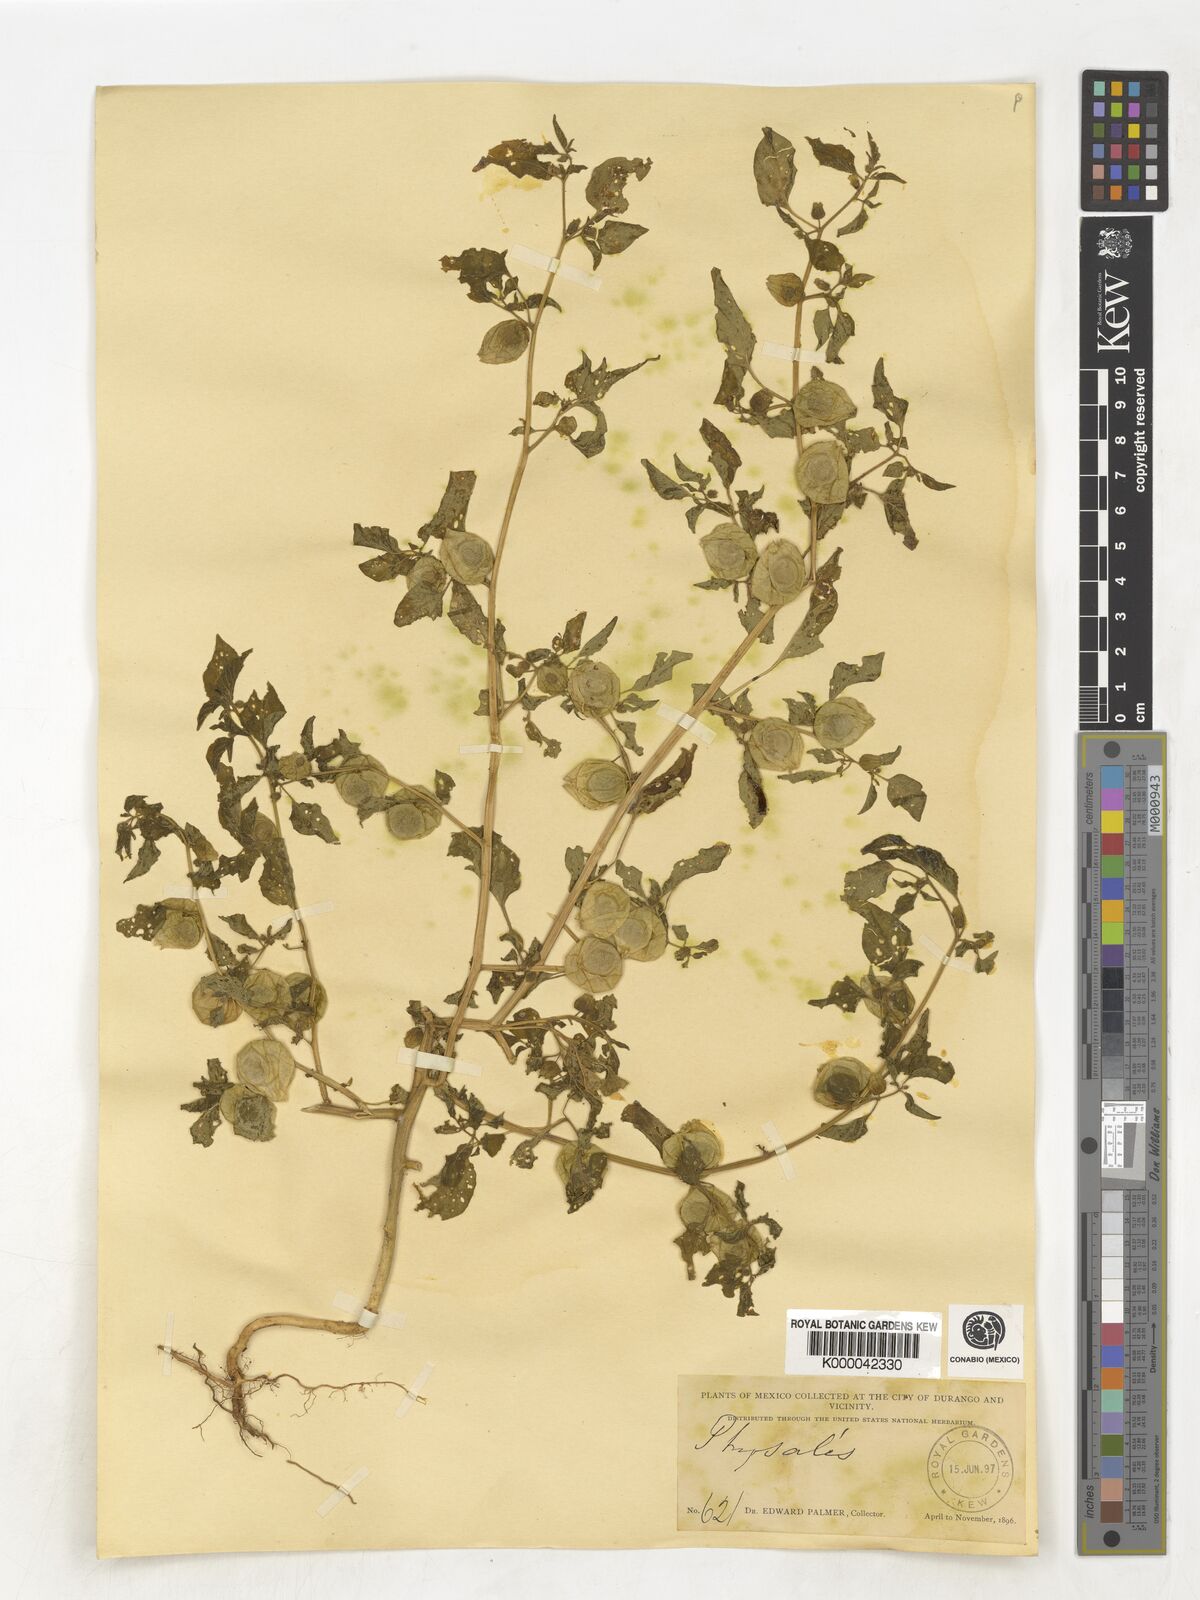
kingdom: Plantae
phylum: Tracheophyta
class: Magnoliopsida
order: Solanales
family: Solanaceae
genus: Physalis
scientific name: Physalis
